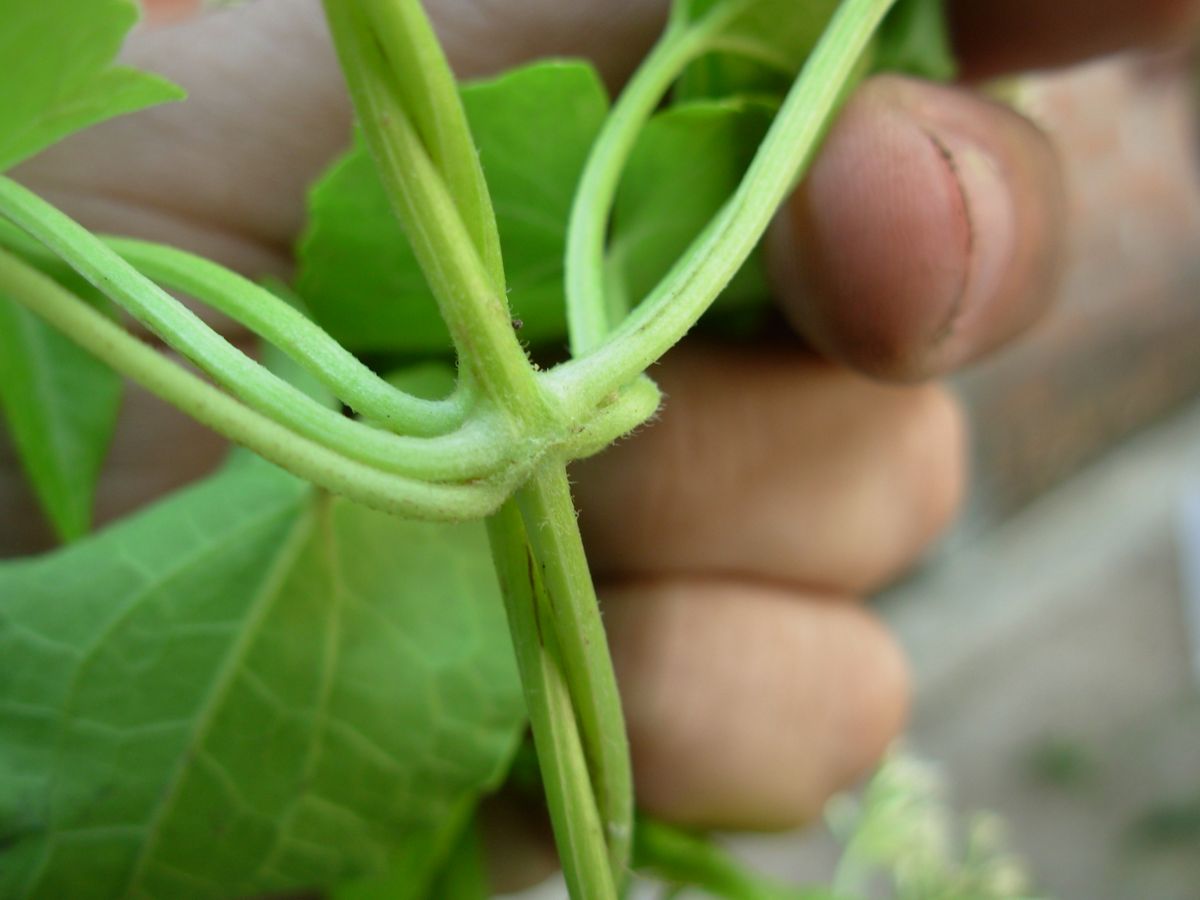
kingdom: Plantae
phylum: Tracheophyta
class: Magnoliopsida
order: Asterales
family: Asteraceae
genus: Mikania
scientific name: Mikania micrantha
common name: Mile-a-minute
